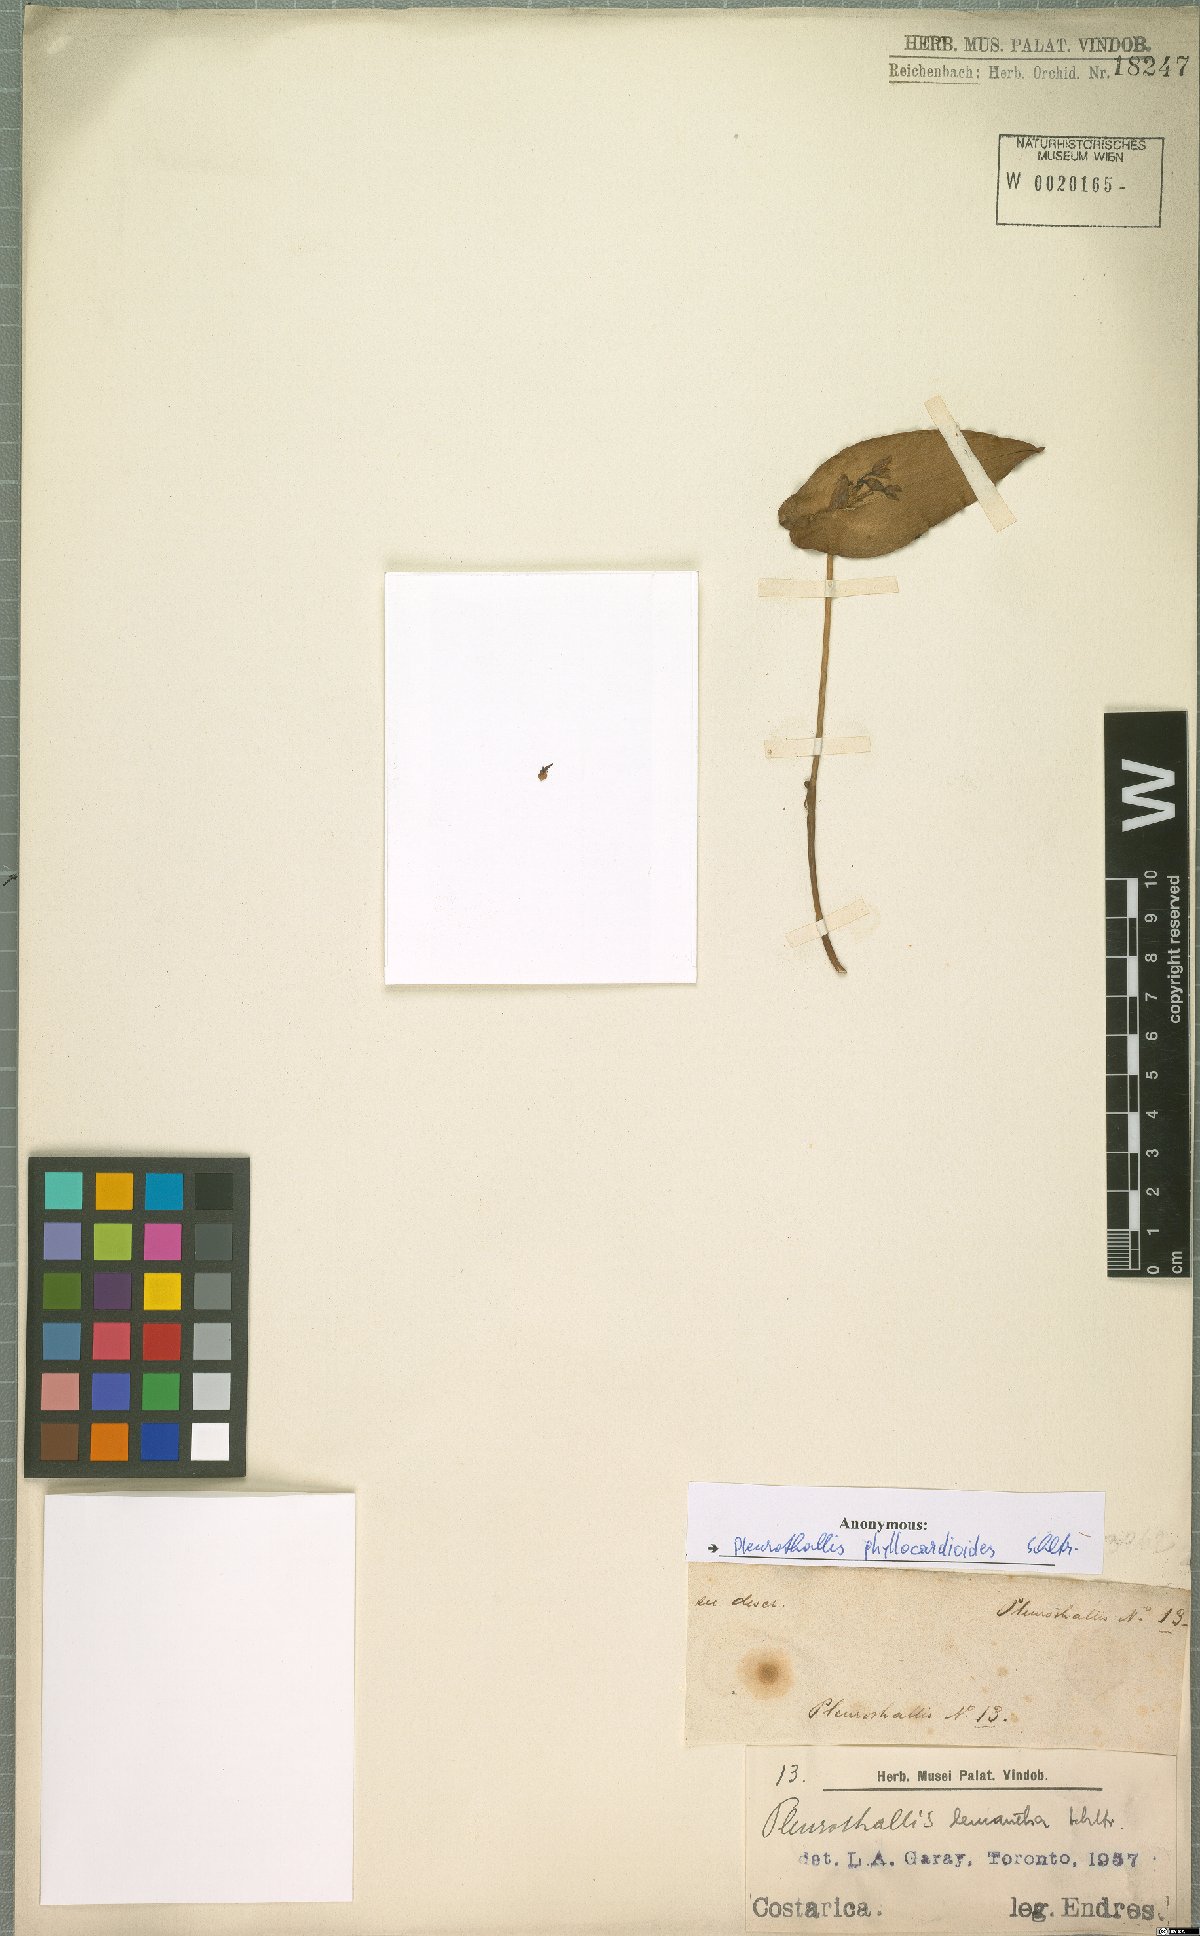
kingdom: Plantae
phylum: Tracheophyta
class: Liliopsida
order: Asparagales
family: Orchidaceae
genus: Pleurothallis
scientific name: Pleurothallis phyllocardioides
